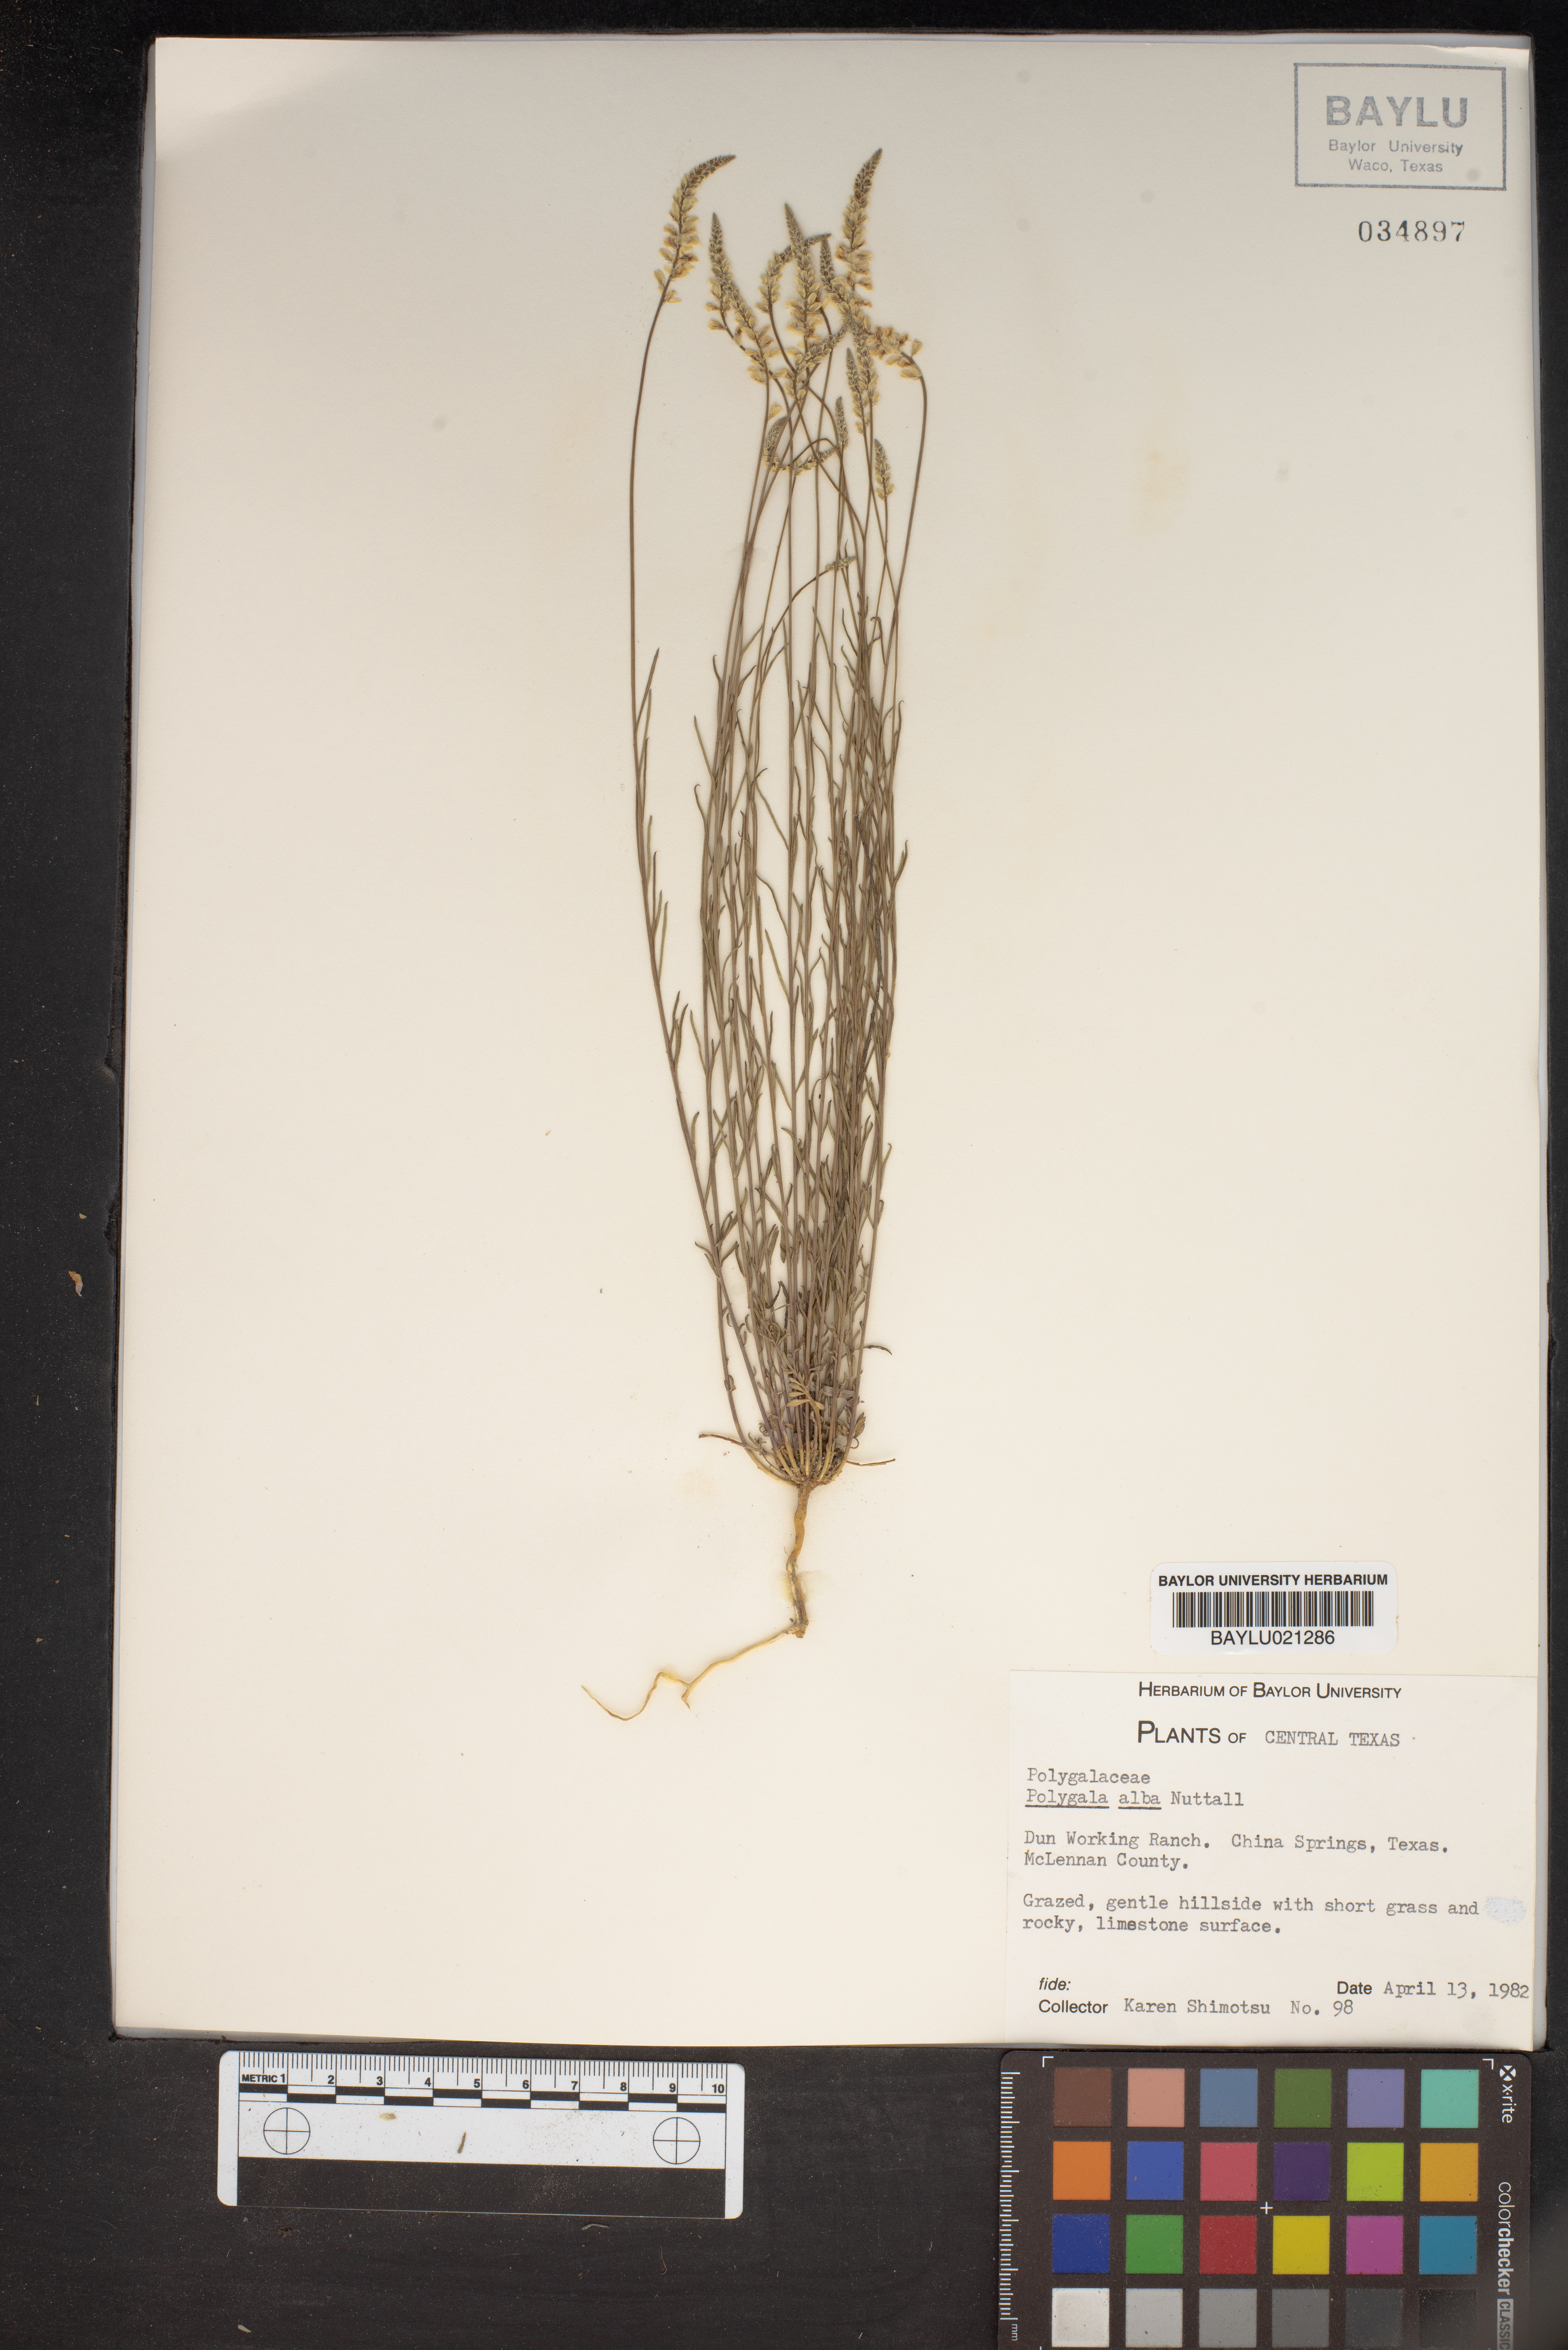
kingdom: Plantae
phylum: Tracheophyta
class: Magnoliopsida
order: Fabales
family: Polygalaceae
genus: Polygala
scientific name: Polygala alba
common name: White milkwort
